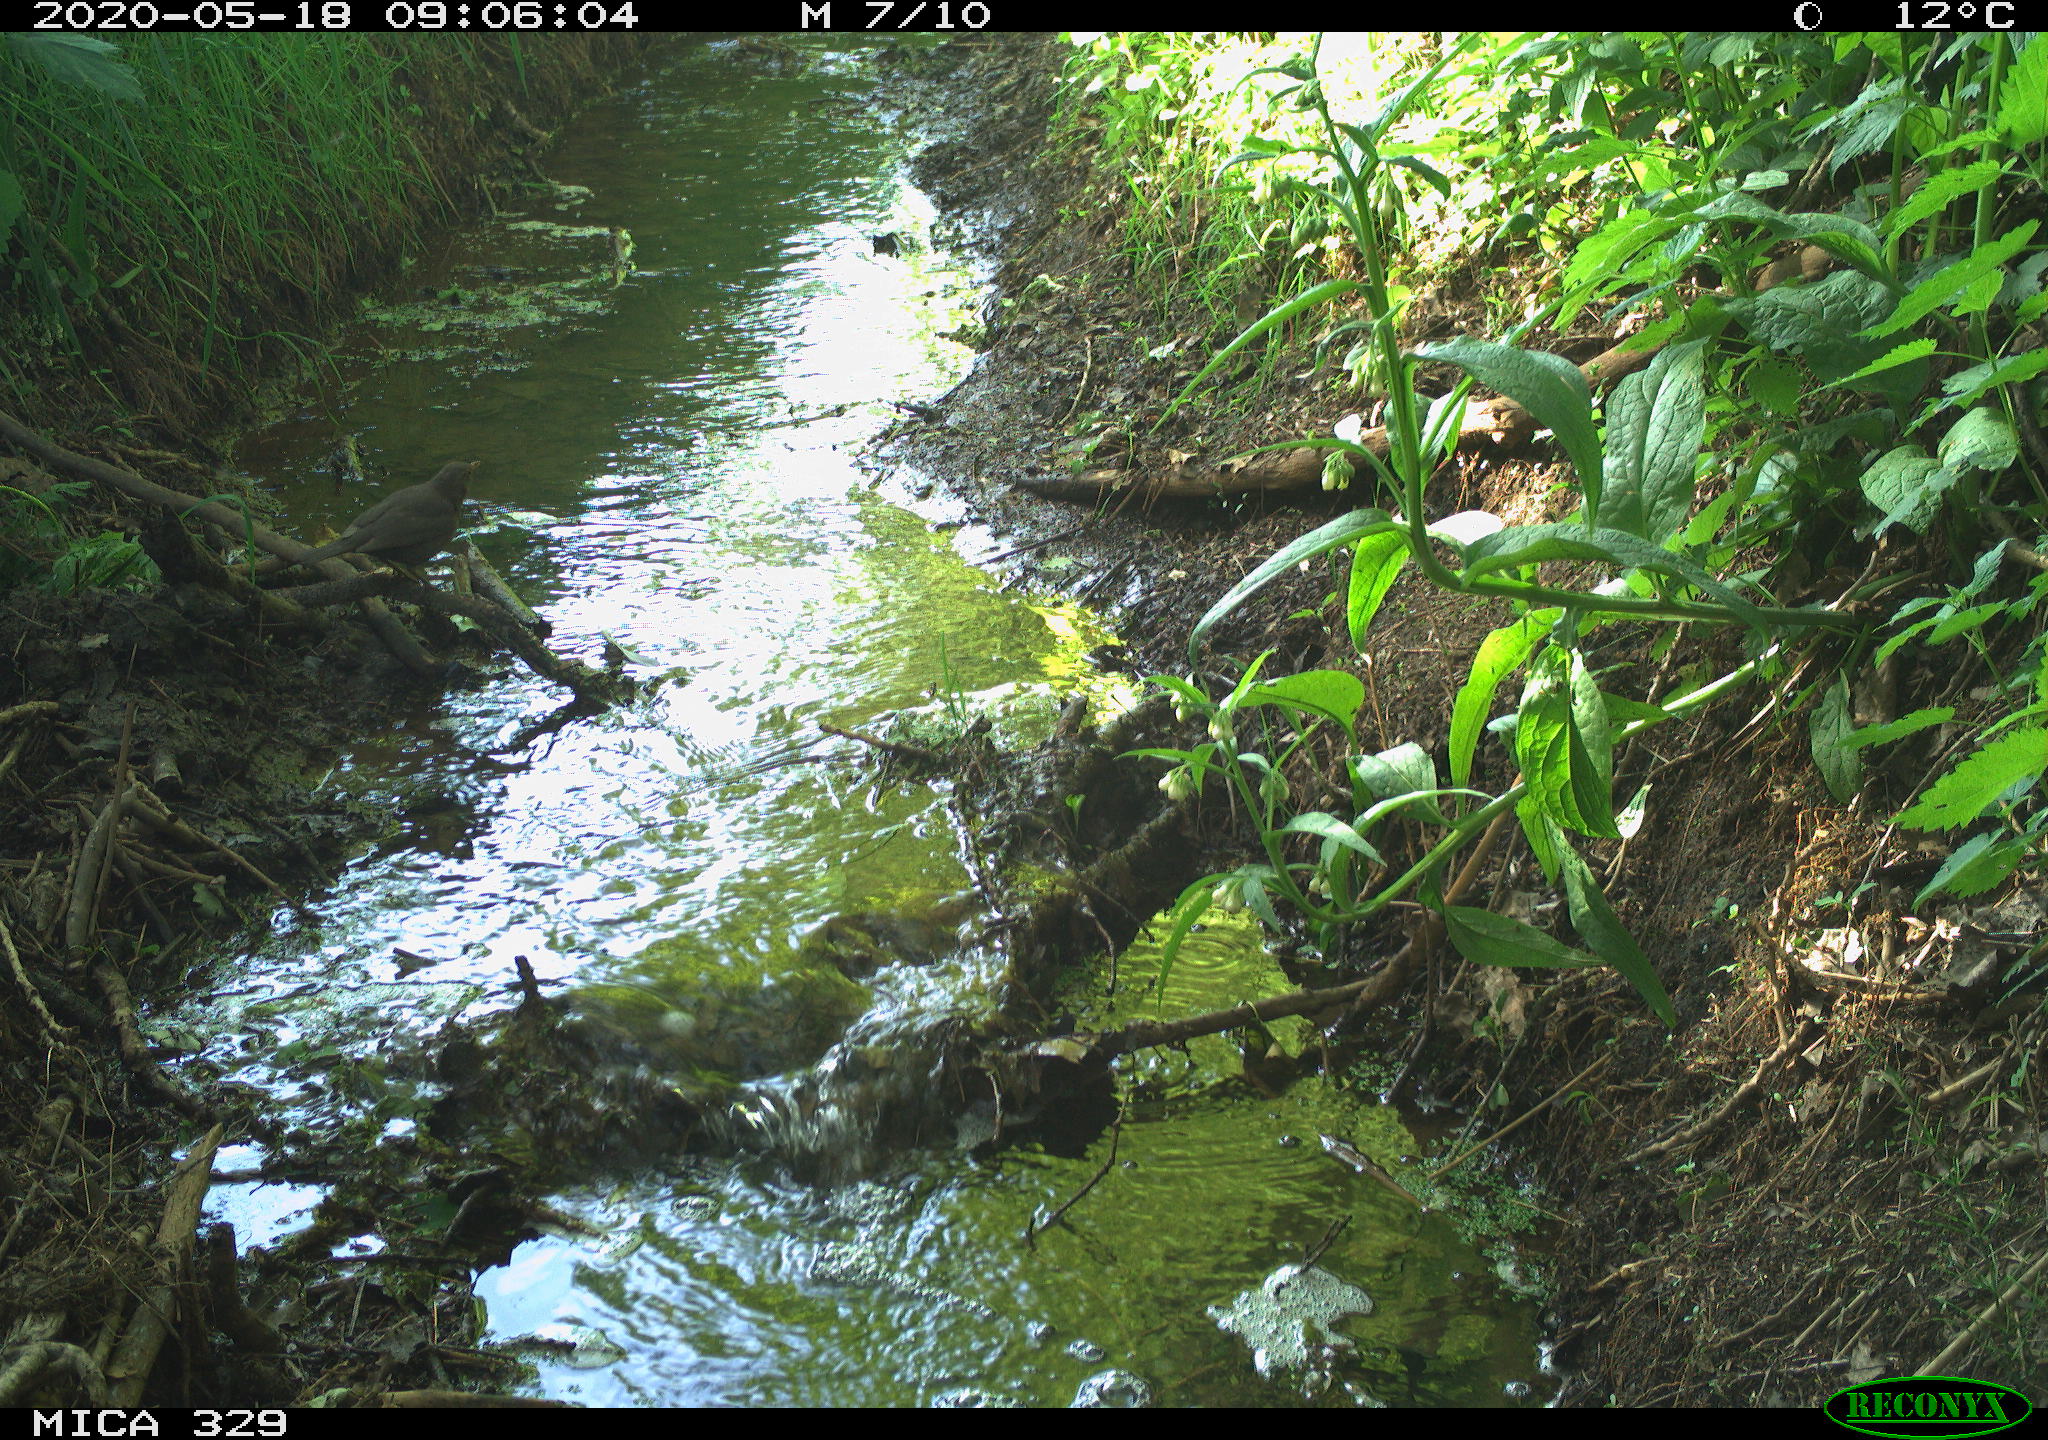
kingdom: Animalia
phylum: Chordata
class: Aves
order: Passeriformes
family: Turdidae
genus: Turdus
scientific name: Turdus merula
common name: Common blackbird
